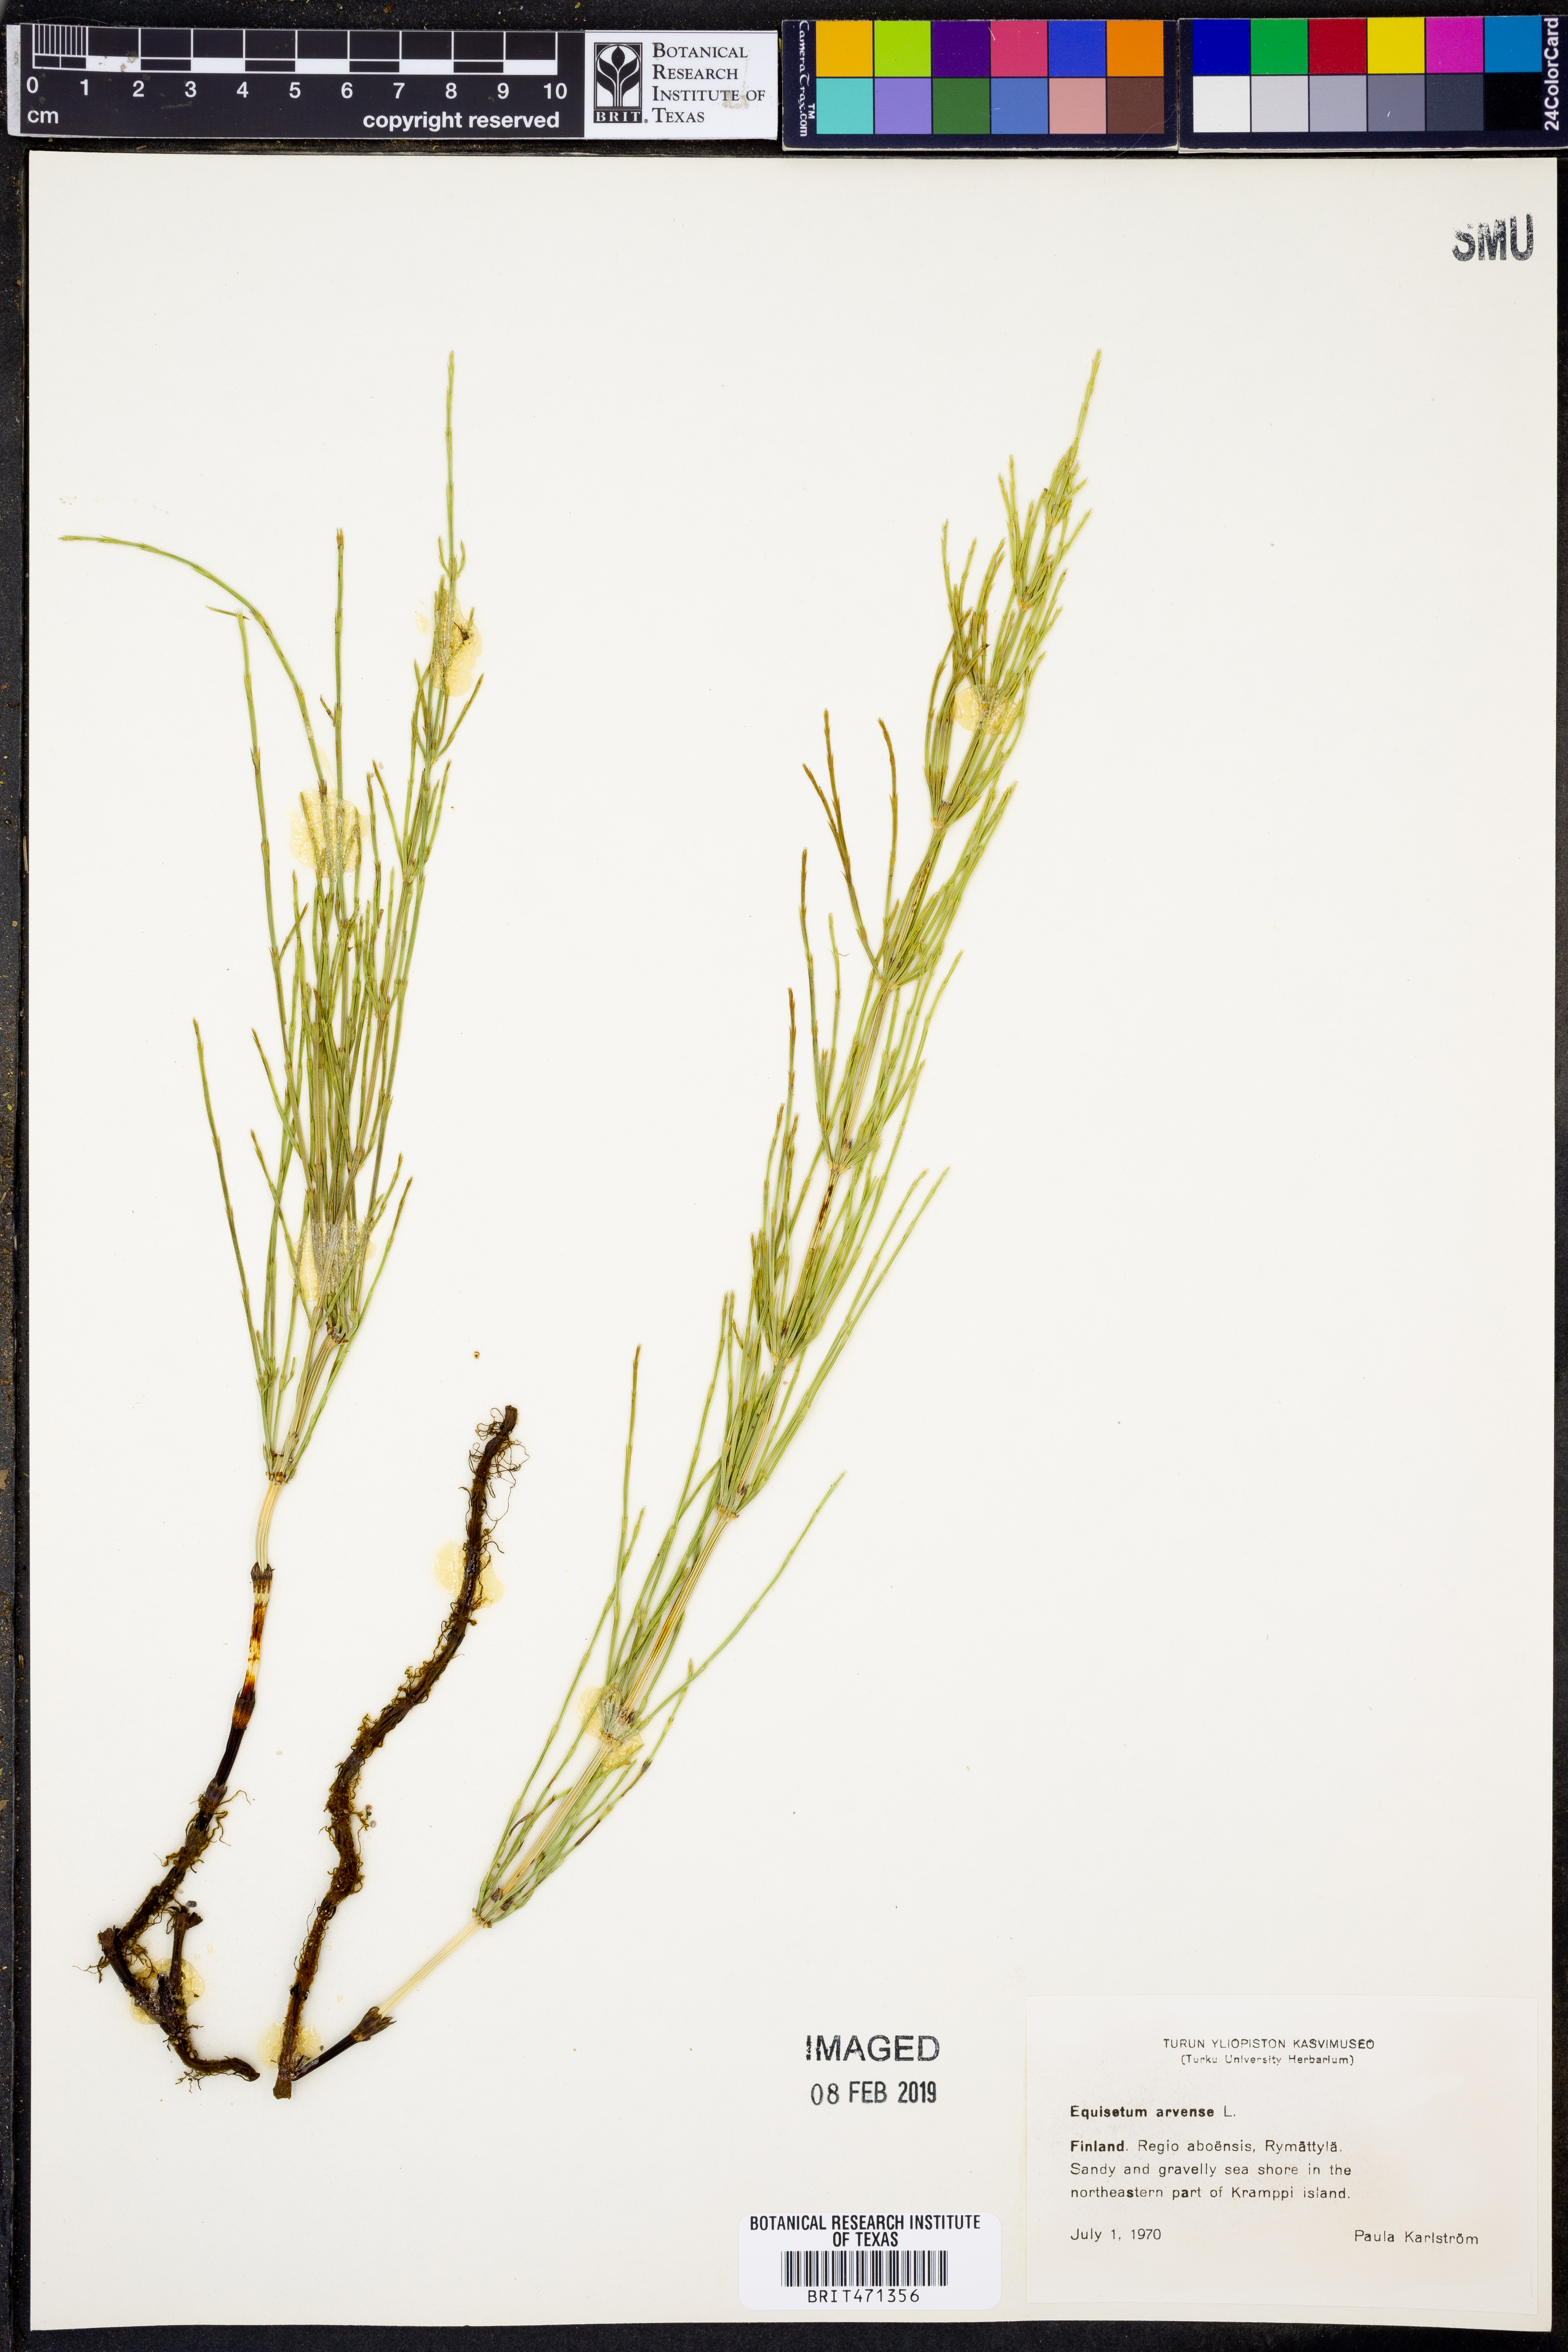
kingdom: Plantae
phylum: Tracheophyta
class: Polypodiopsida
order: Equisetales
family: Equisetaceae
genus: Equisetum
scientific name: Equisetum arvense
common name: Field horsetail
